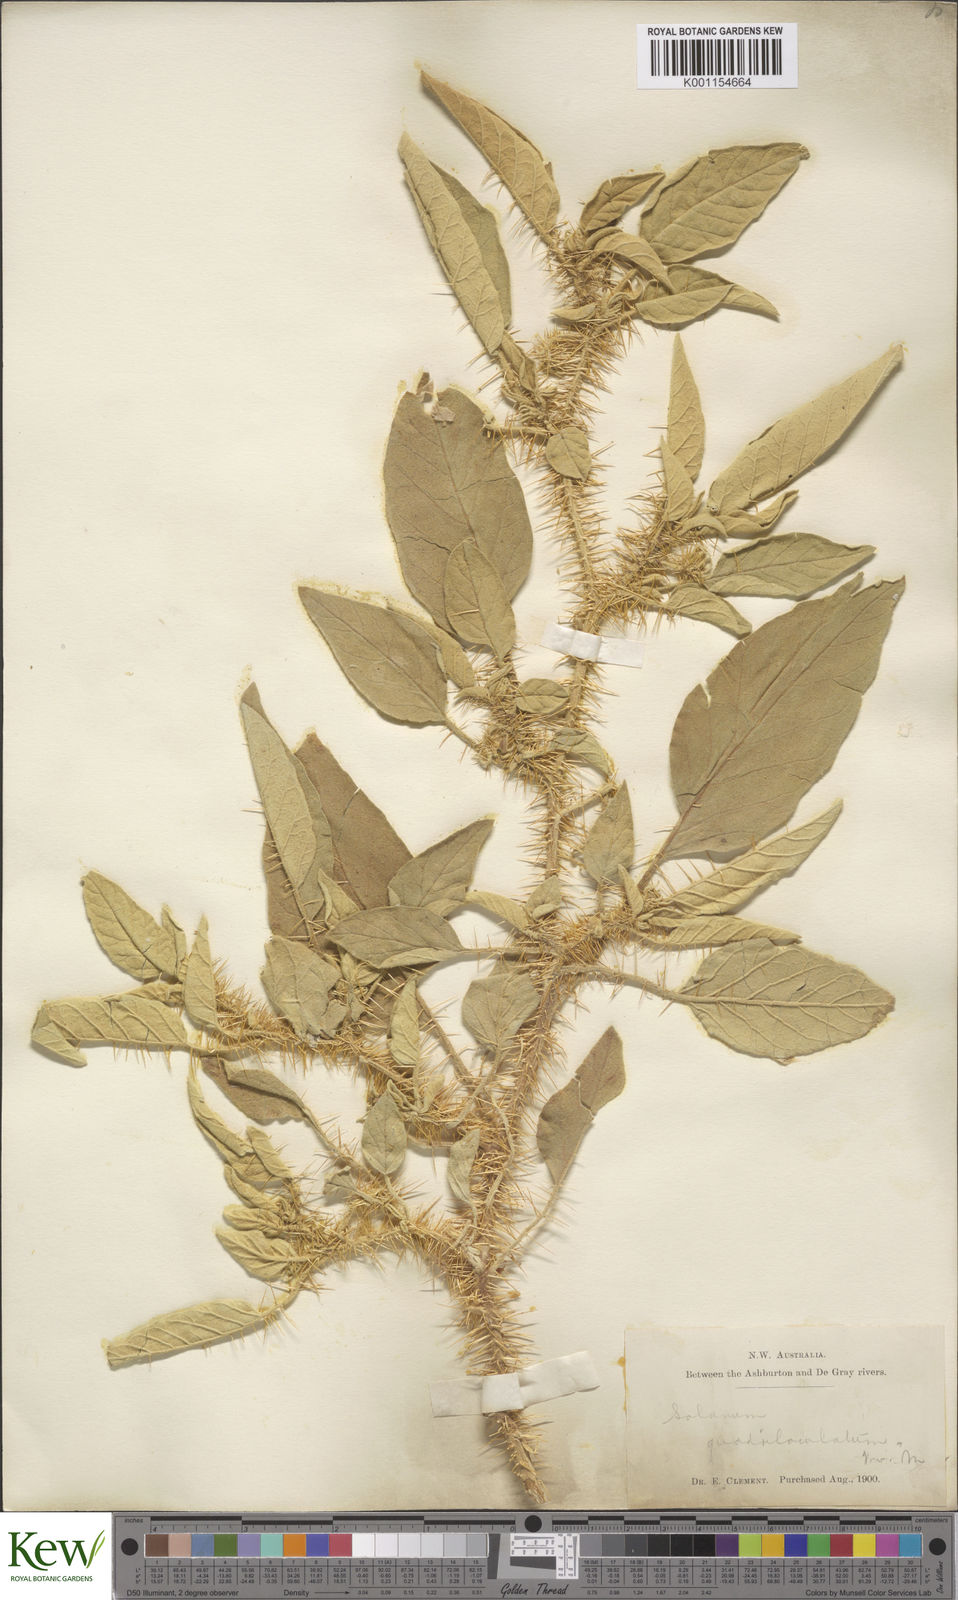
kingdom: Plantae
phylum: Tracheophyta
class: Magnoliopsida
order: Solanales
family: Solanaceae
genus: Solanum
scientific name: Solanum horridum
